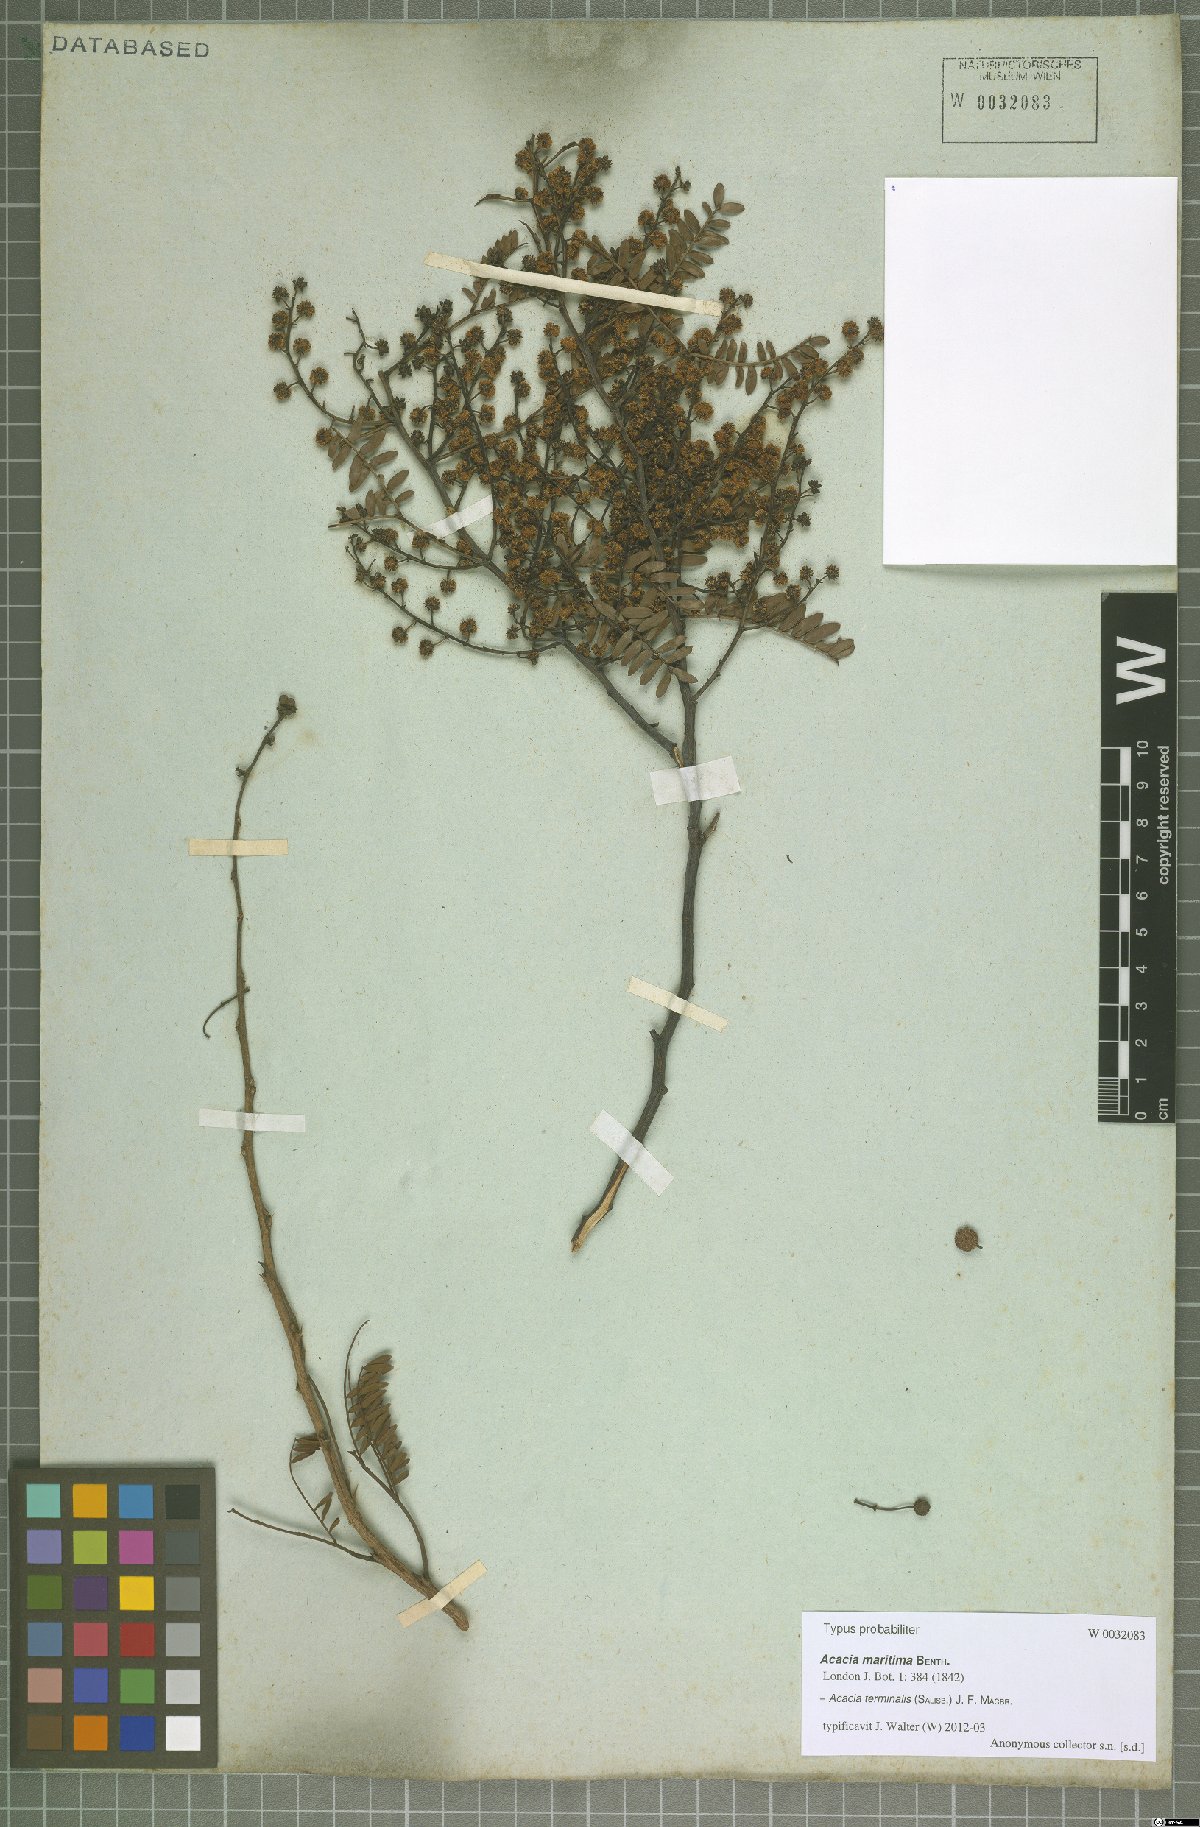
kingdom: Plantae
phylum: Tracheophyta
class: Magnoliopsida
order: Fabales
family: Fabaceae
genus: Acacia
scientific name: Acacia terminalis
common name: Cedar wattle
